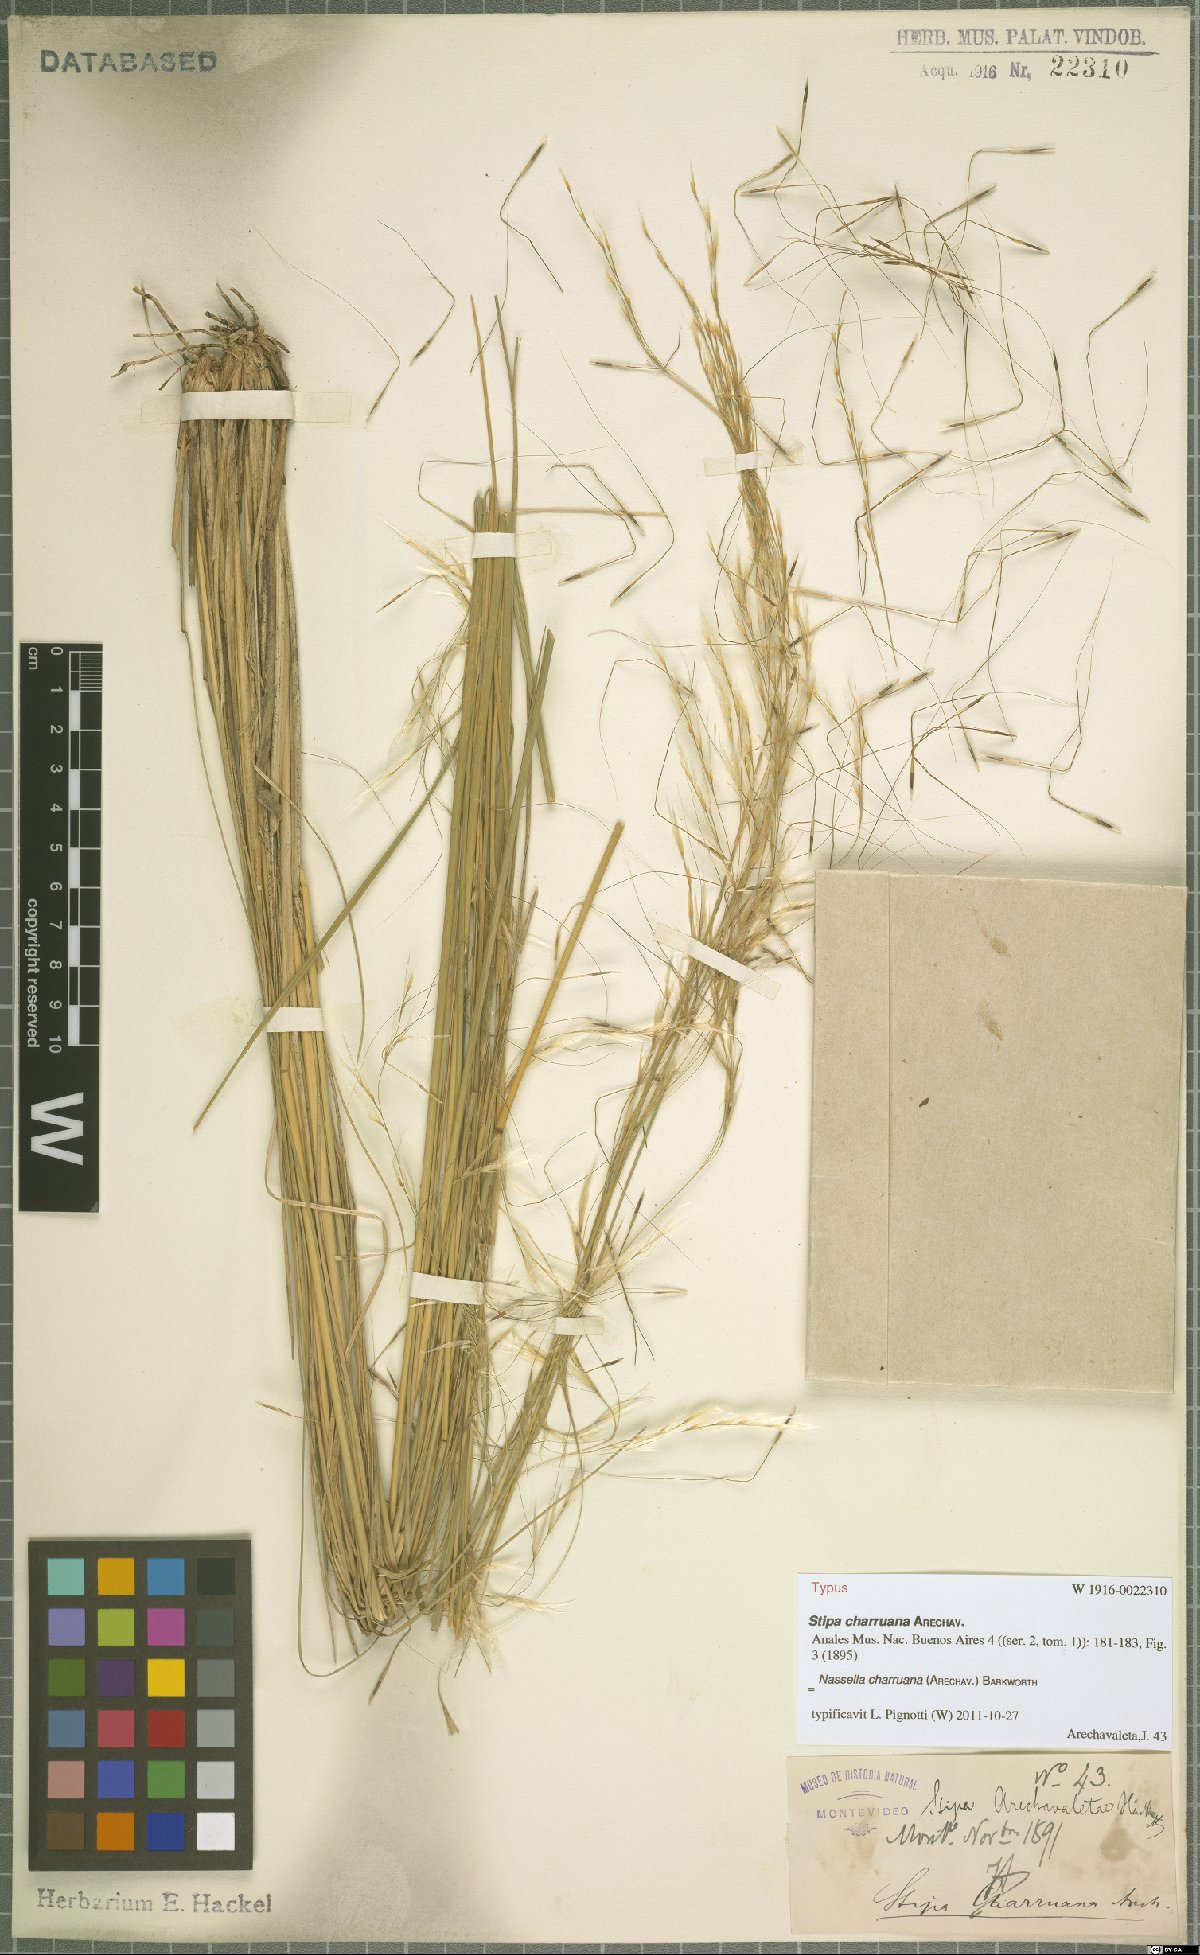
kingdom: Plantae
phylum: Tracheophyta
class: Liliopsida
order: Poales
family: Poaceae
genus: Nassella
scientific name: Nassella charruana
